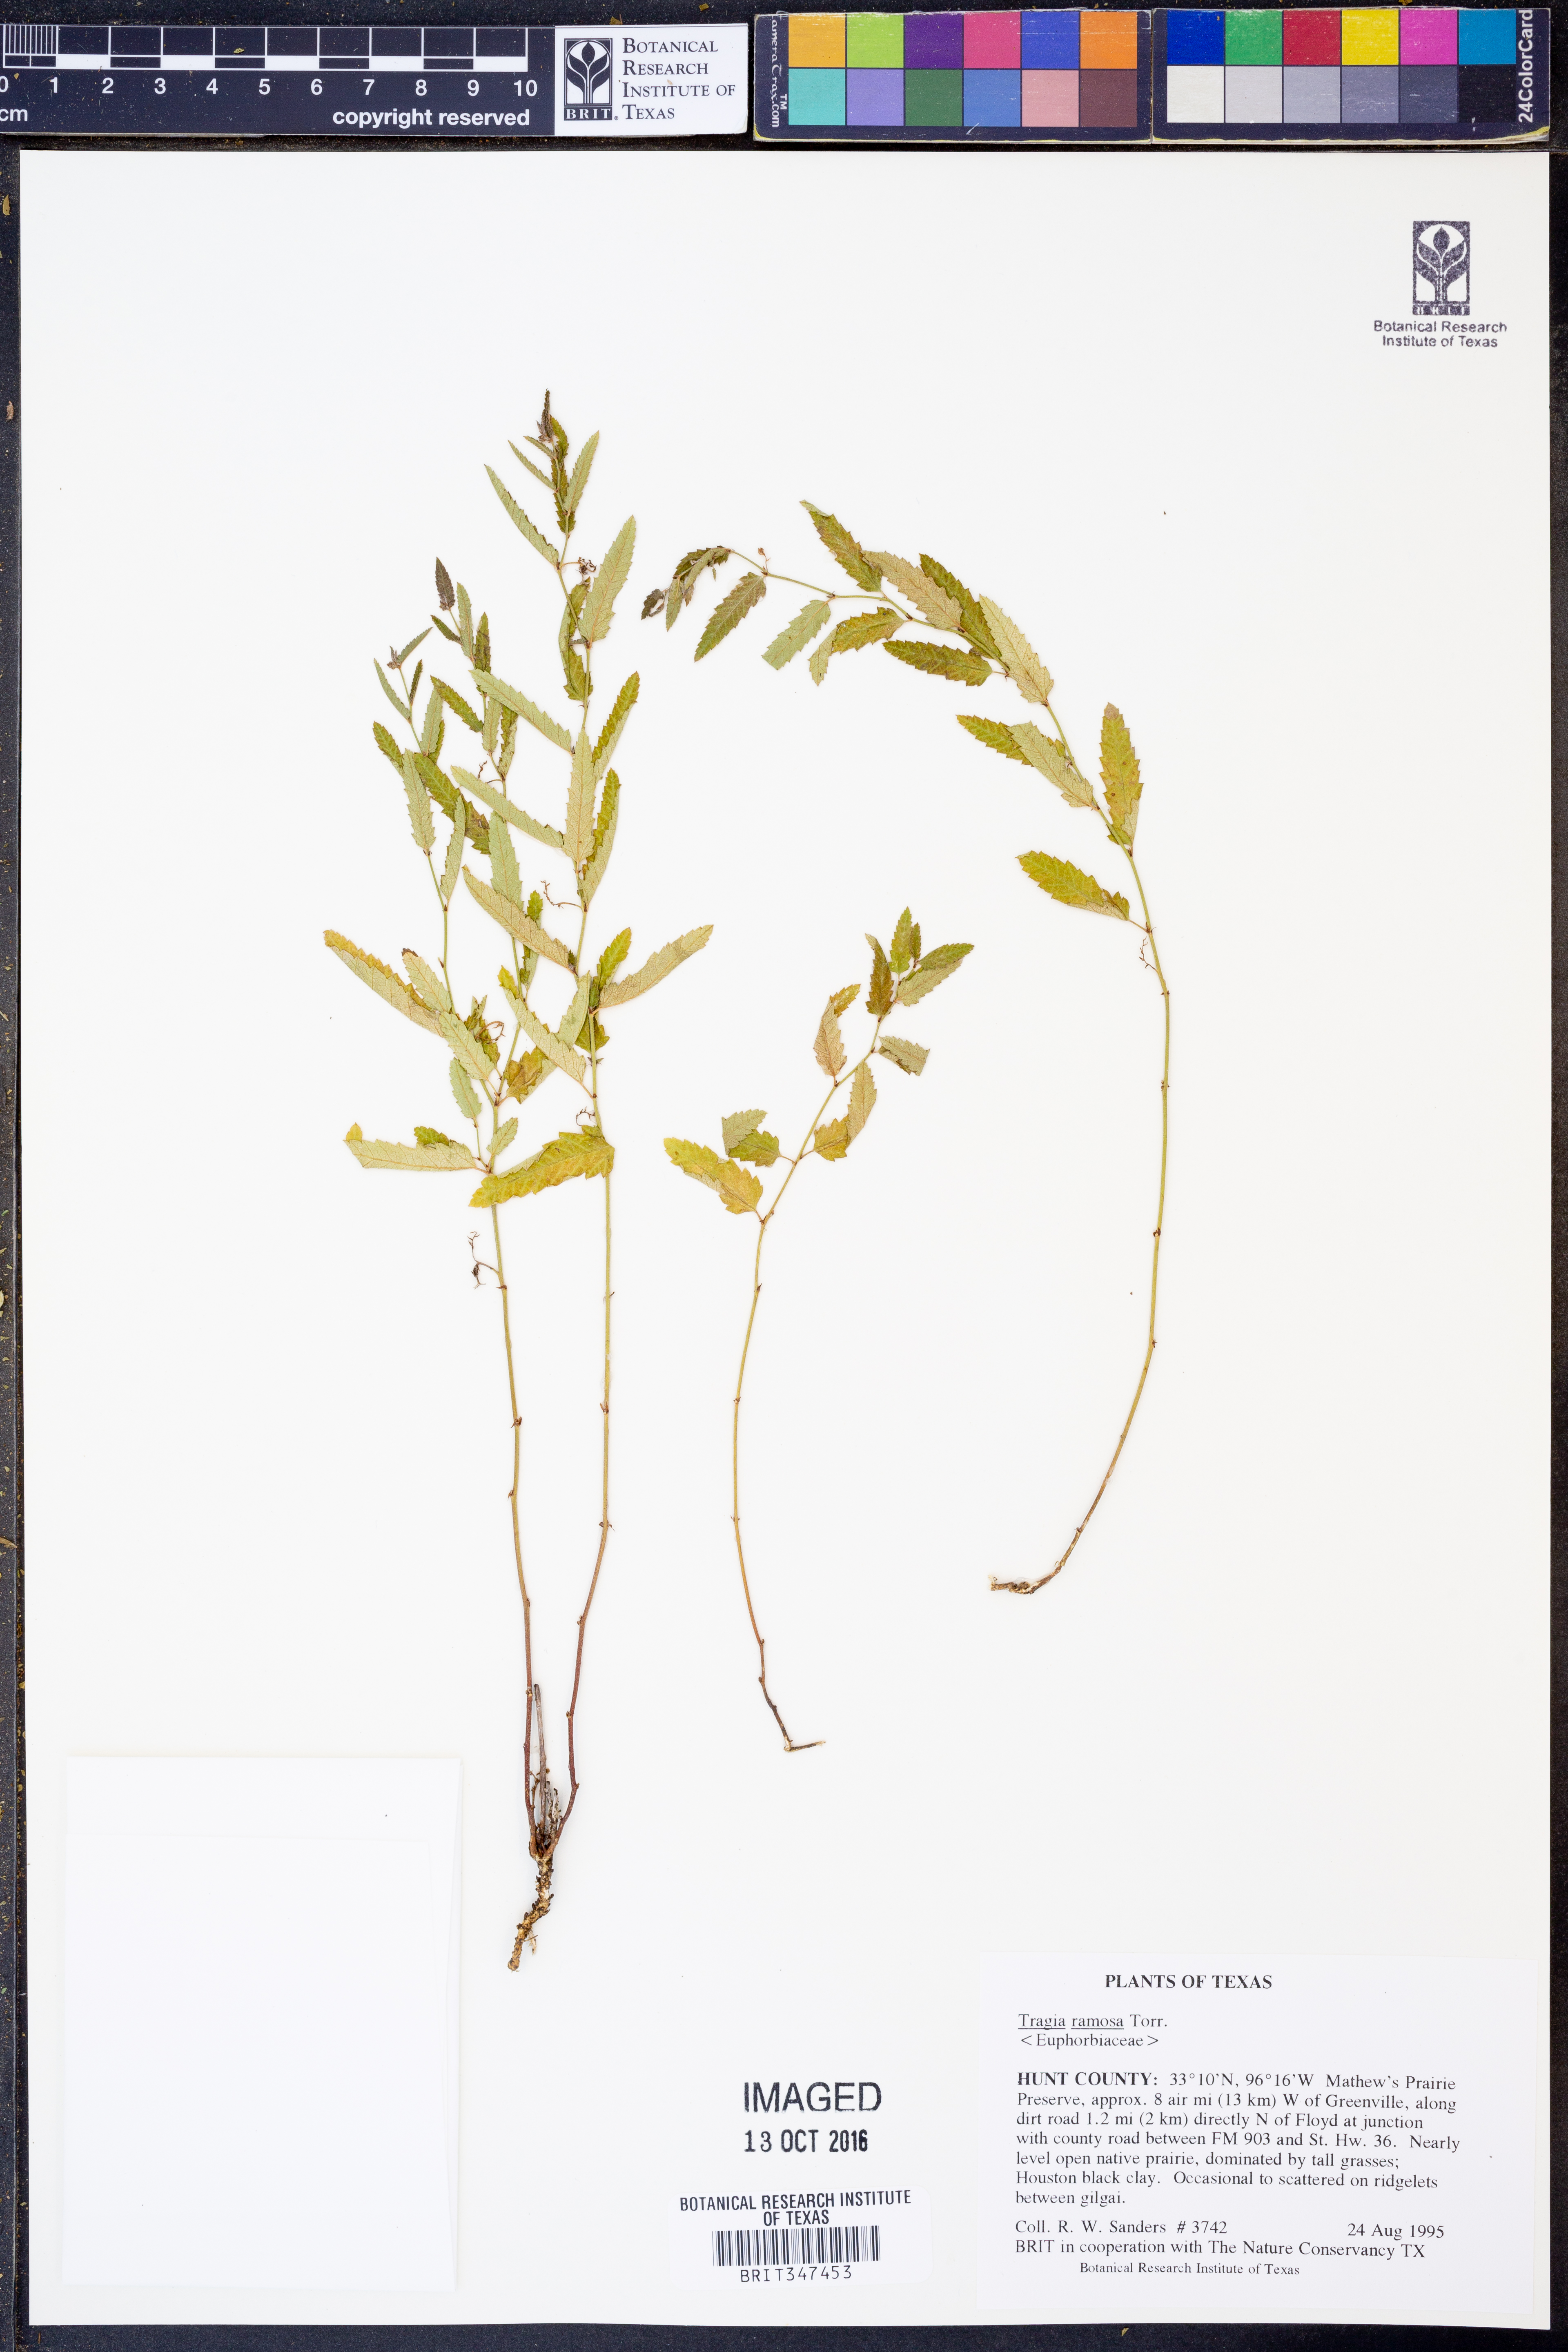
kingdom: Plantae
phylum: Tracheophyta
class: Magnoliopsida
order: Malpighiales
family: Euphorbiaceae
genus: Tragia
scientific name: Tragia ramosa
